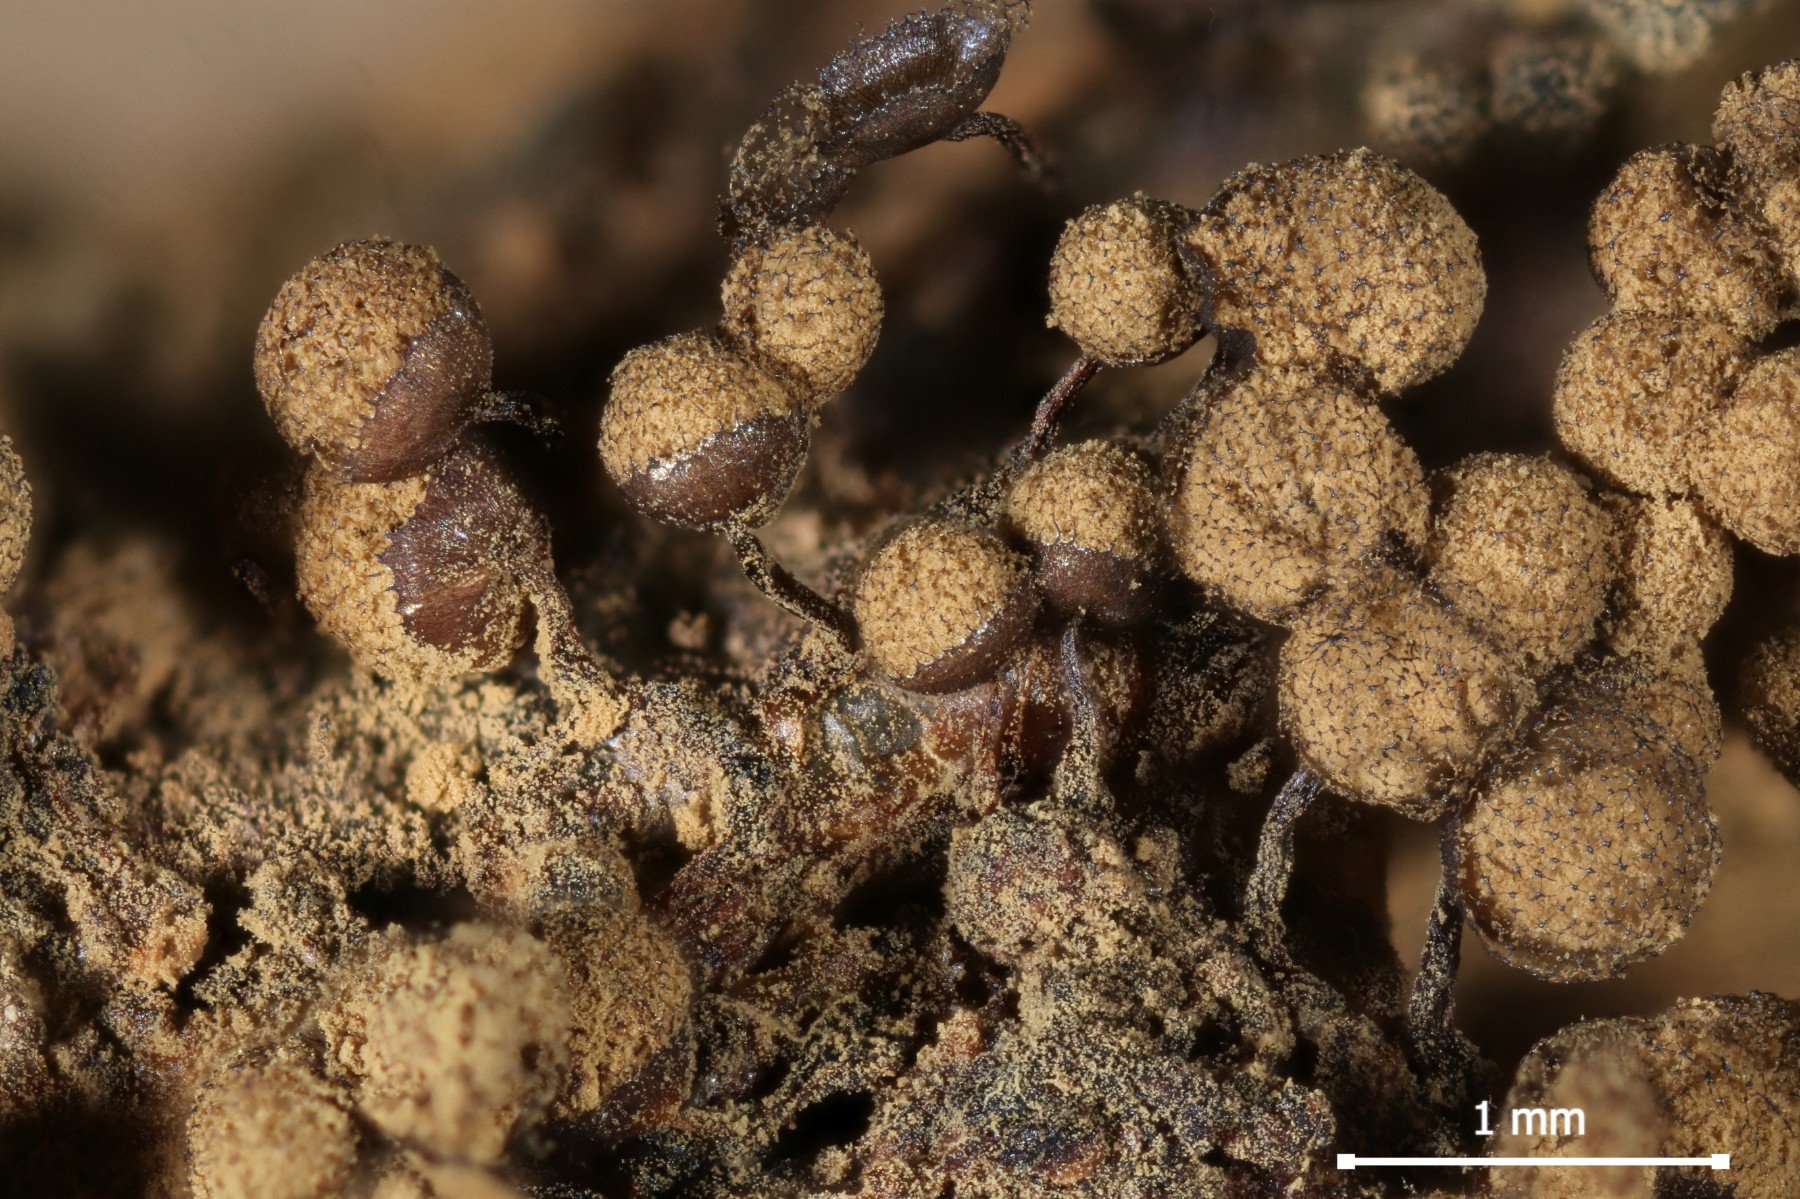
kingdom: Protozoa
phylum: Mycetozoa
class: Myxomycetes
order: Cribrariales
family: Cribrariaceae
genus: Cribraria
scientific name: Cribraria persoonii
